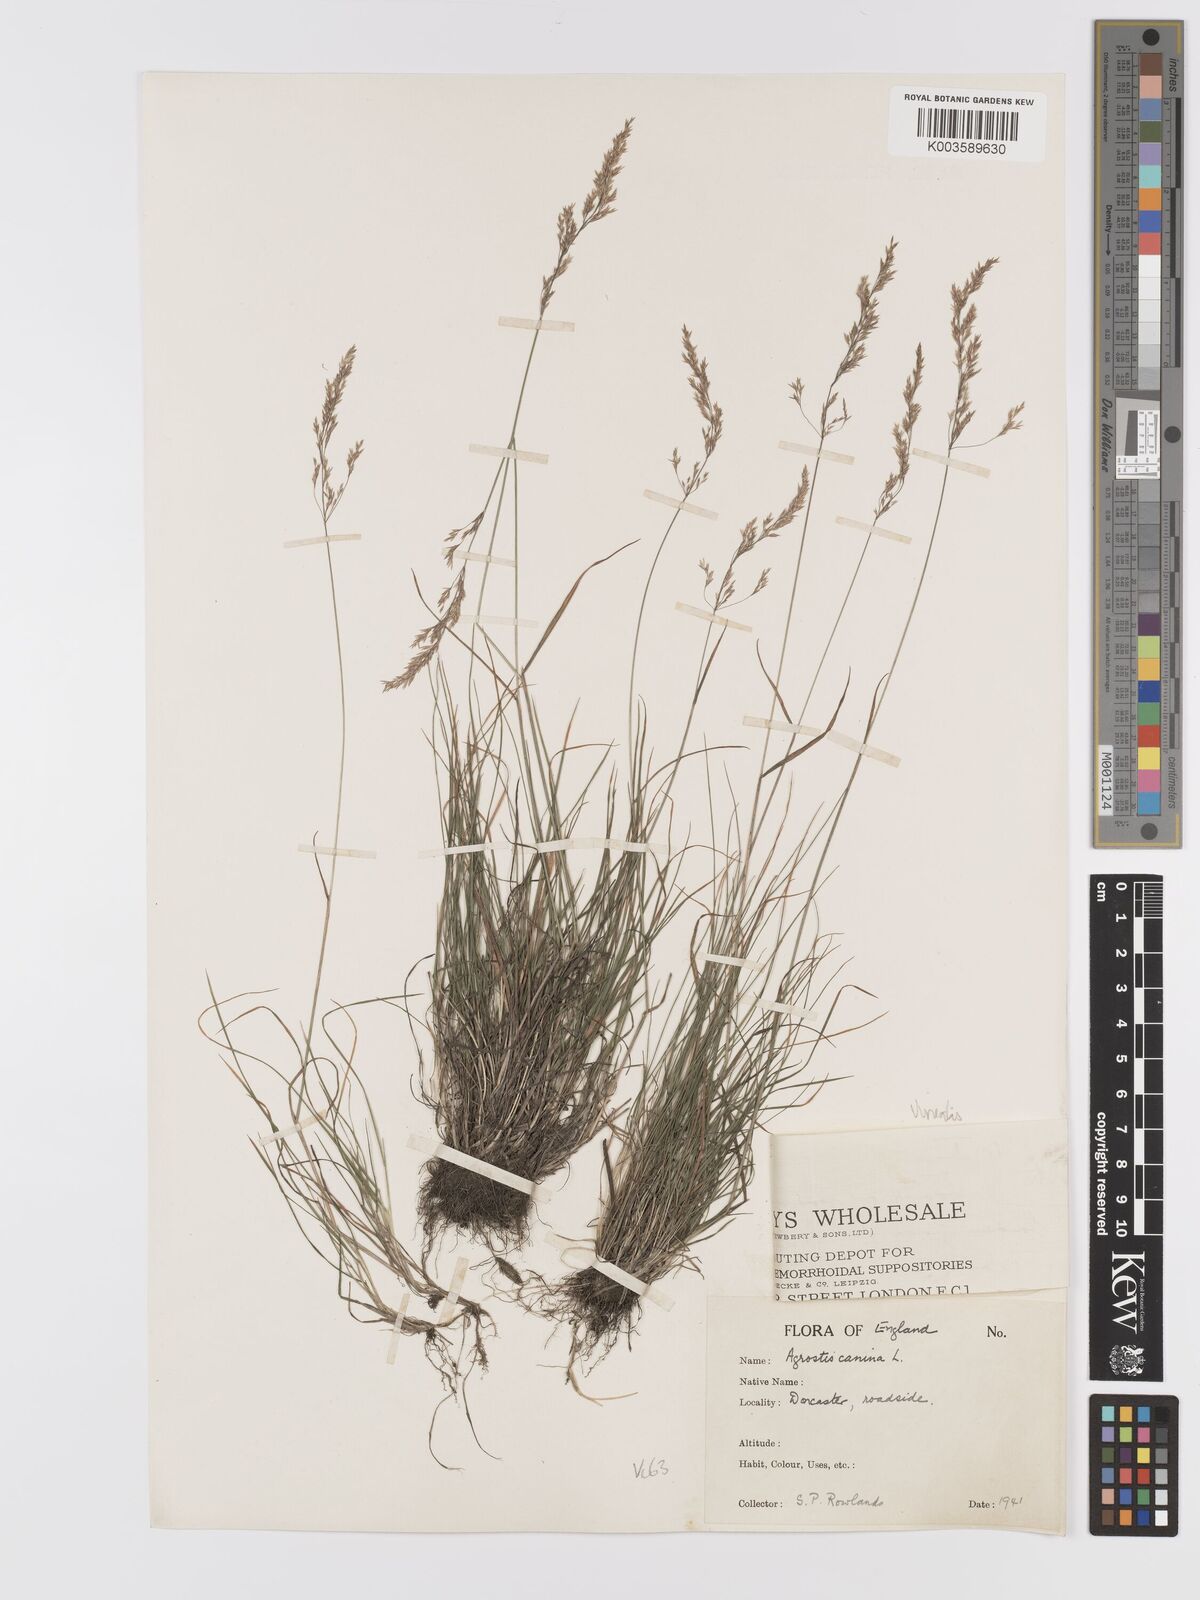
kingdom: Plantae
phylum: Tracheophyta
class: Liliopsida
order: Poales
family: Poaceae
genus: Agrostis
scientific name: Agrostis
